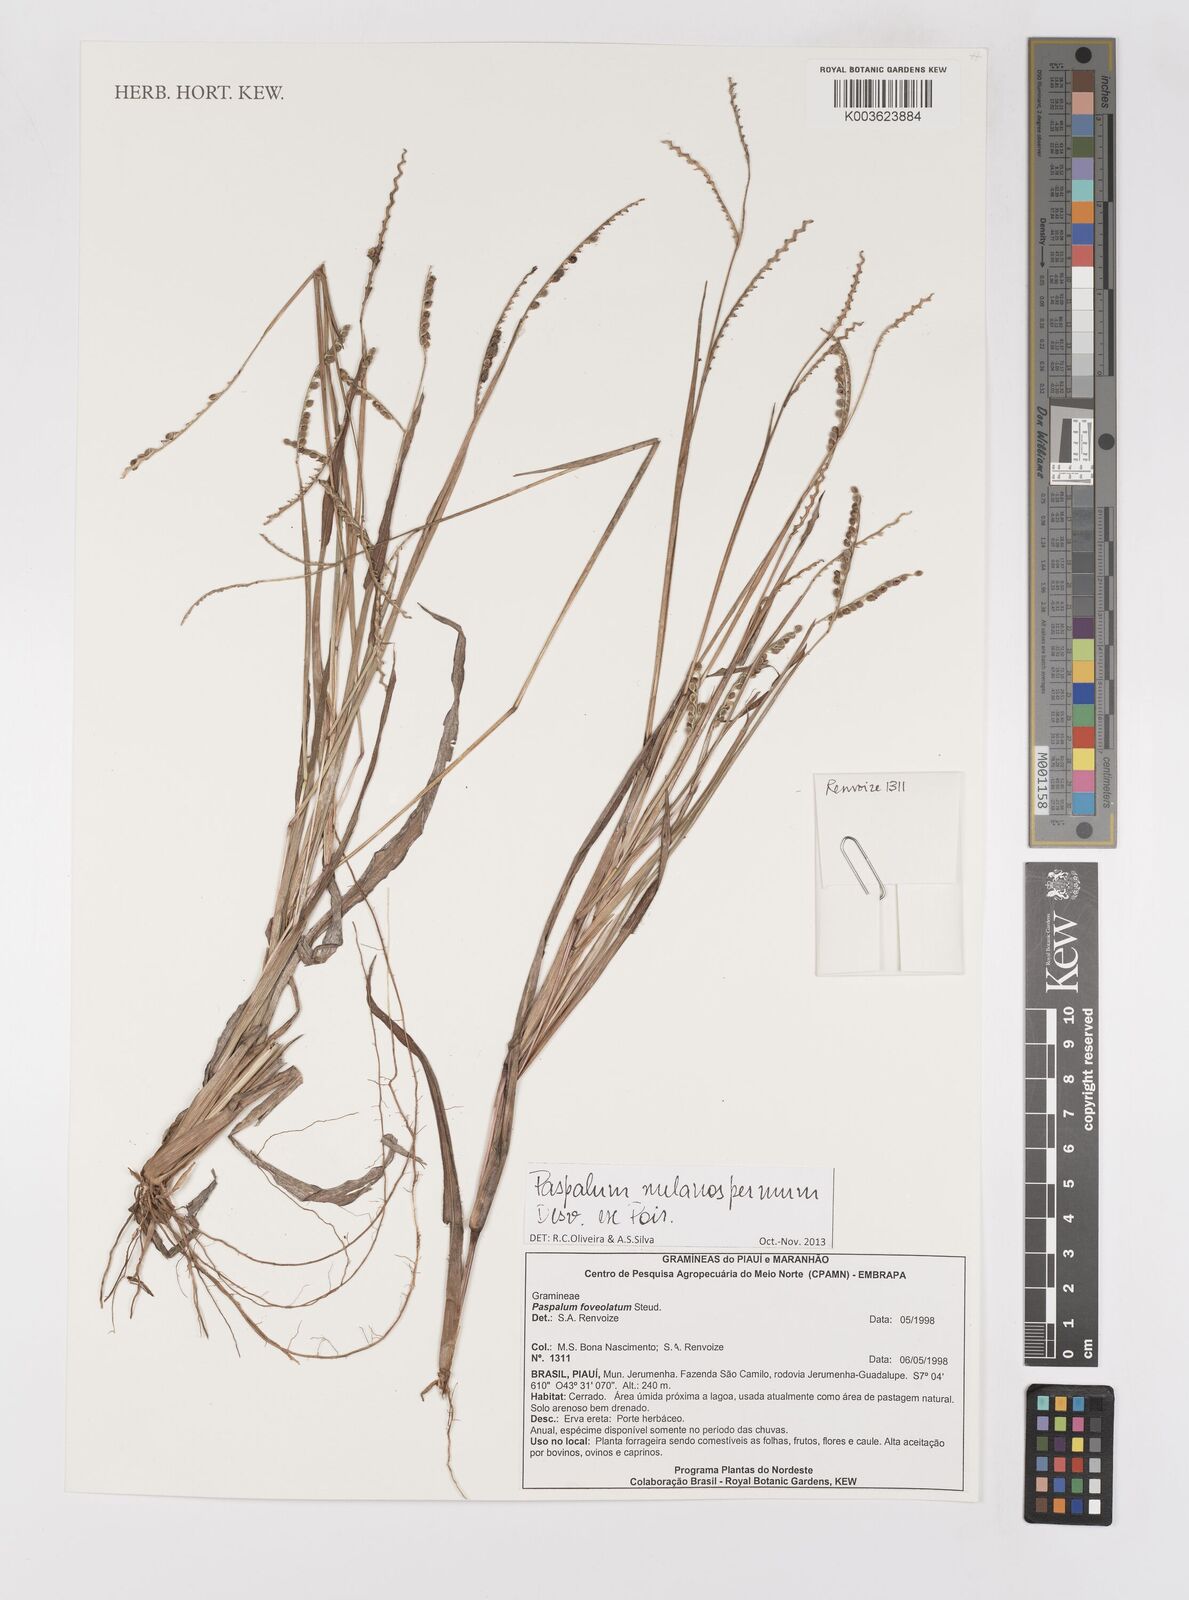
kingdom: Plantae
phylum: Tracheophyta
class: Liliopsida
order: Poales
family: Poaceae
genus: Paspalum
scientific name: Paspalum melanospermum
